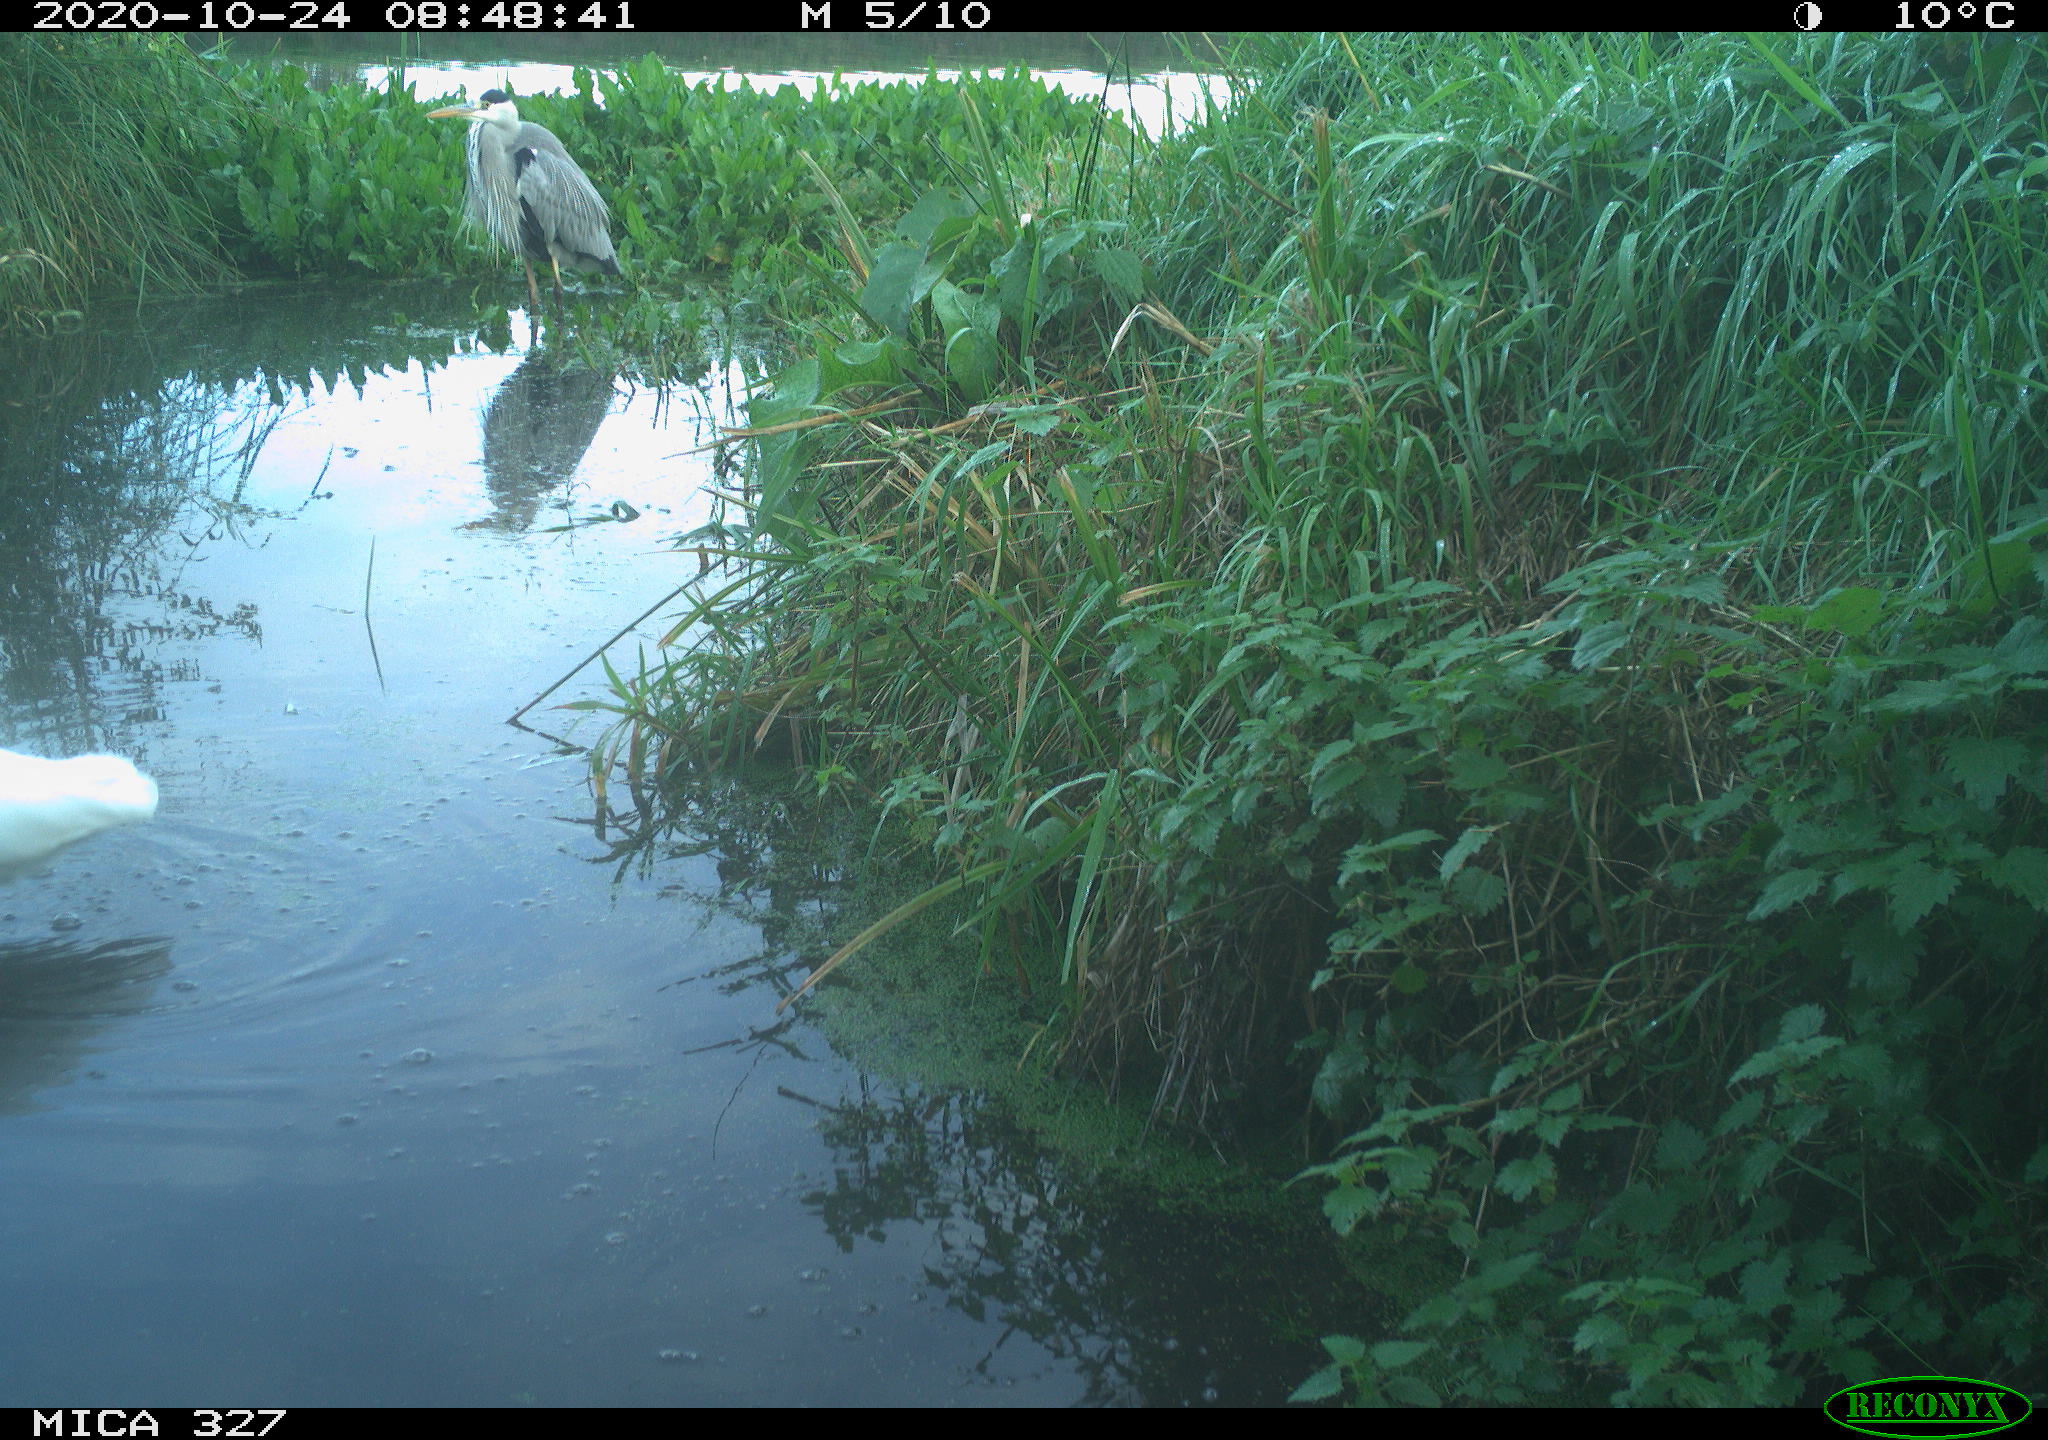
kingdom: Animalia
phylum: Chordata
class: Aves
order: Pelecaniformes
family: Ardeidae
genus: Ardea
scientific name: Ardea cinerea
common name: Grey heron
